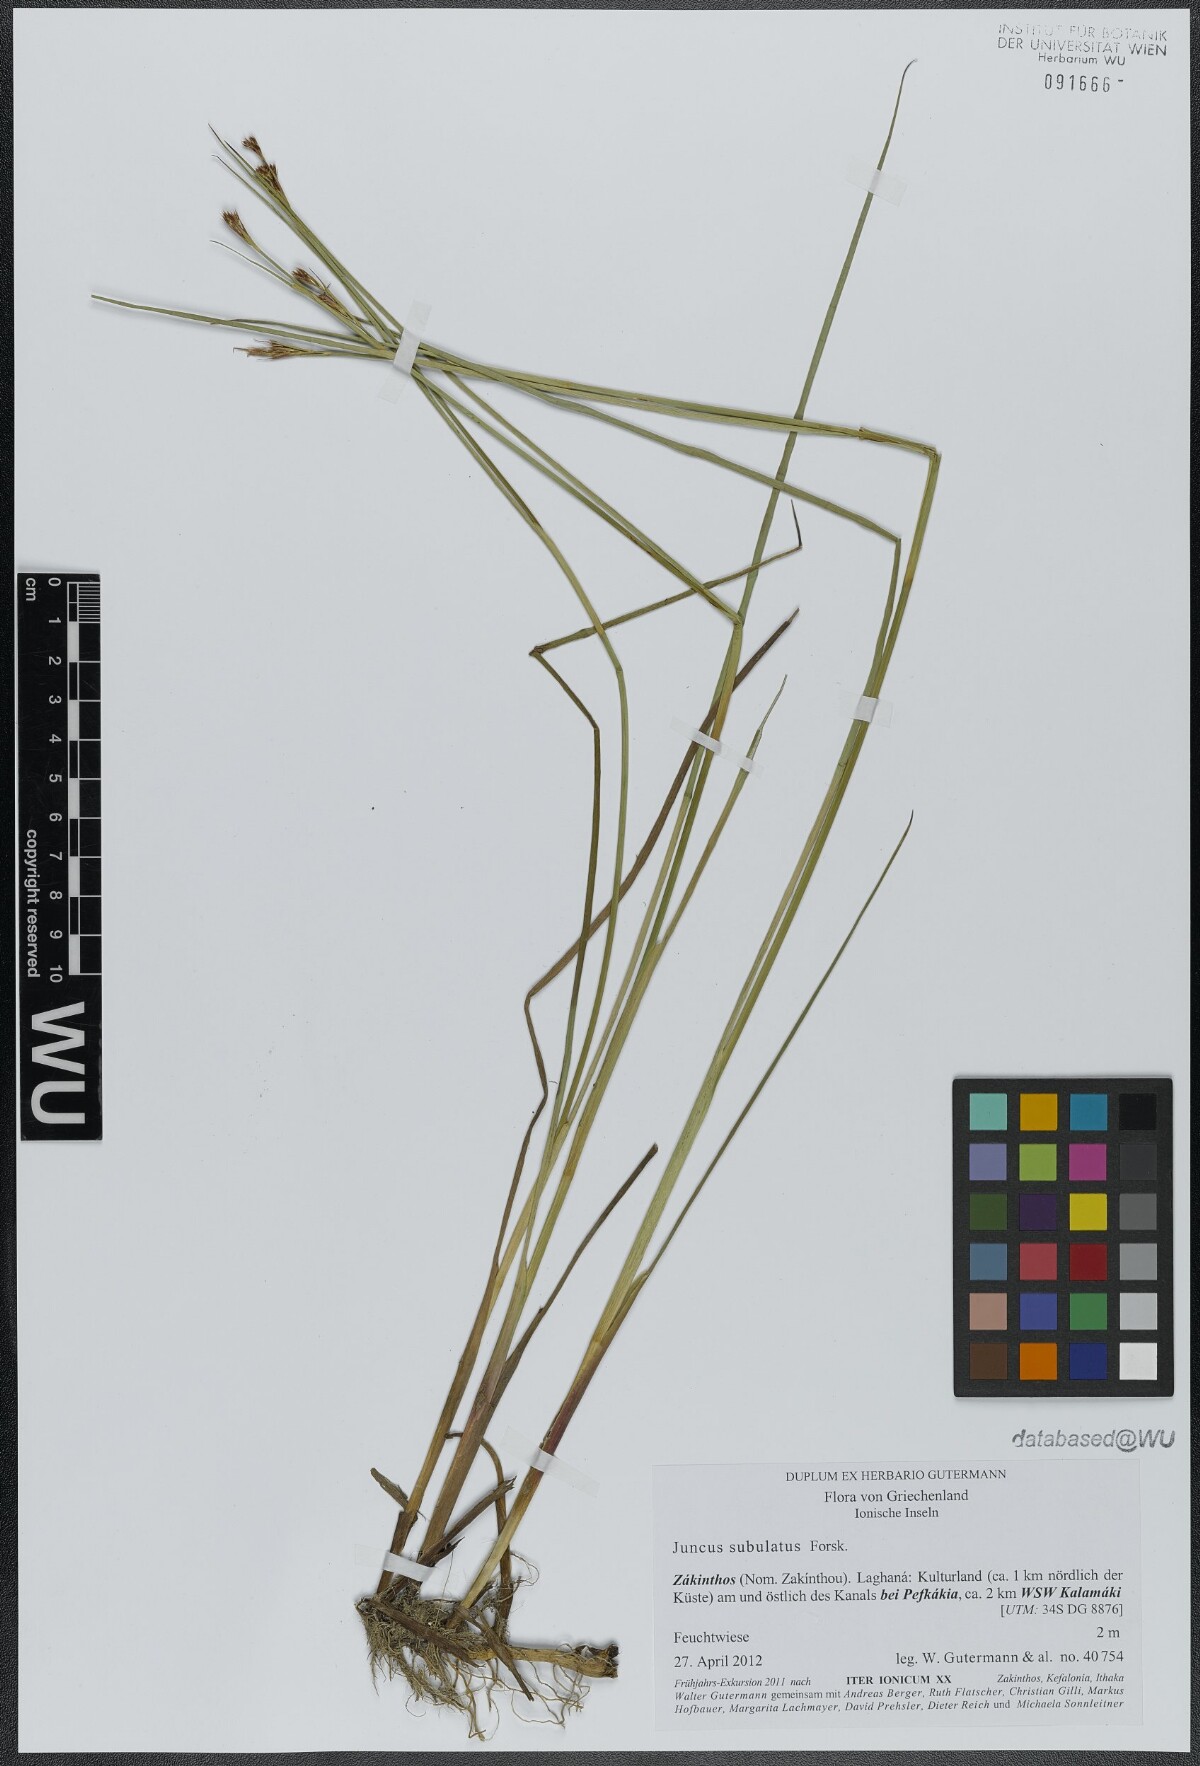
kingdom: Plantae
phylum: Tracheophyta
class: Liliopsida
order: Poales
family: Juncaceae
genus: Juncus
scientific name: Juncus subulatus
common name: Somerset rush
